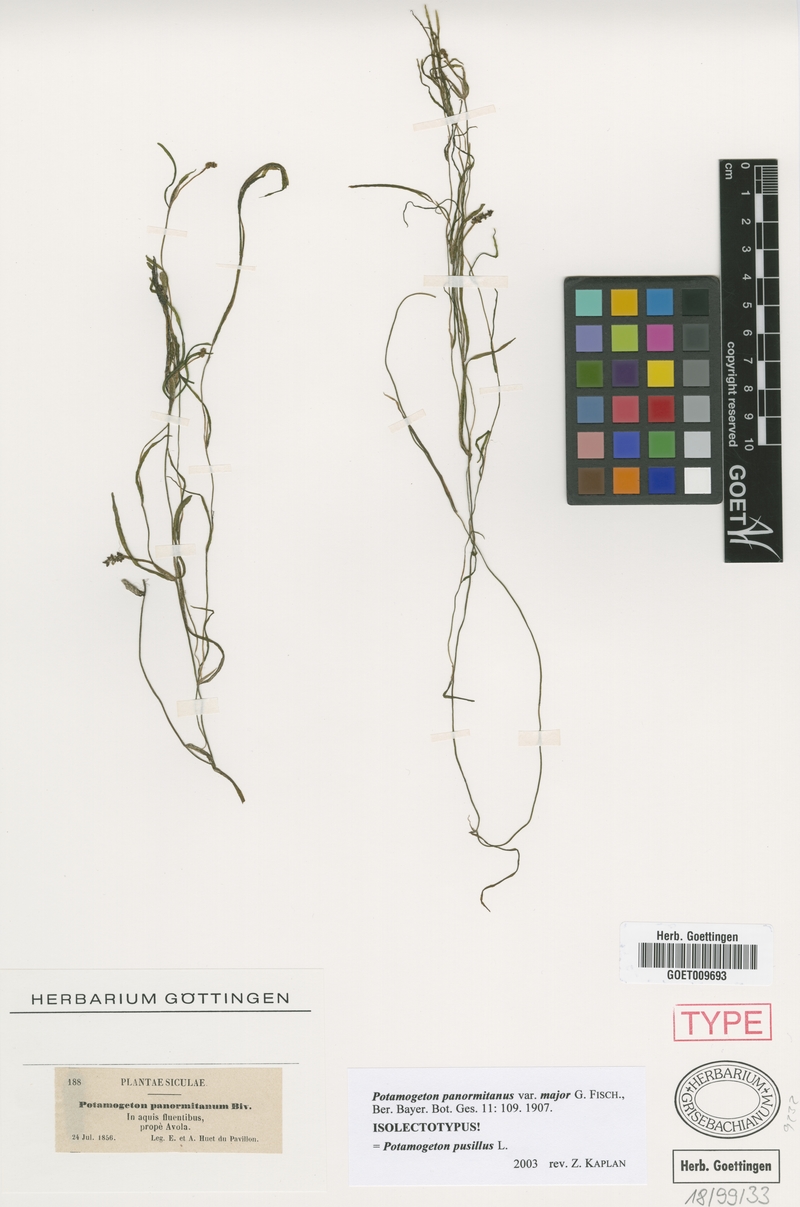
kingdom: Plantae
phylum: Tracheophyta
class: Liliopsida
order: Alismatales
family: Potamogetonaceae
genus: Potamogeton
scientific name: Potamogeton pusillus
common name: Lesser pondweed
